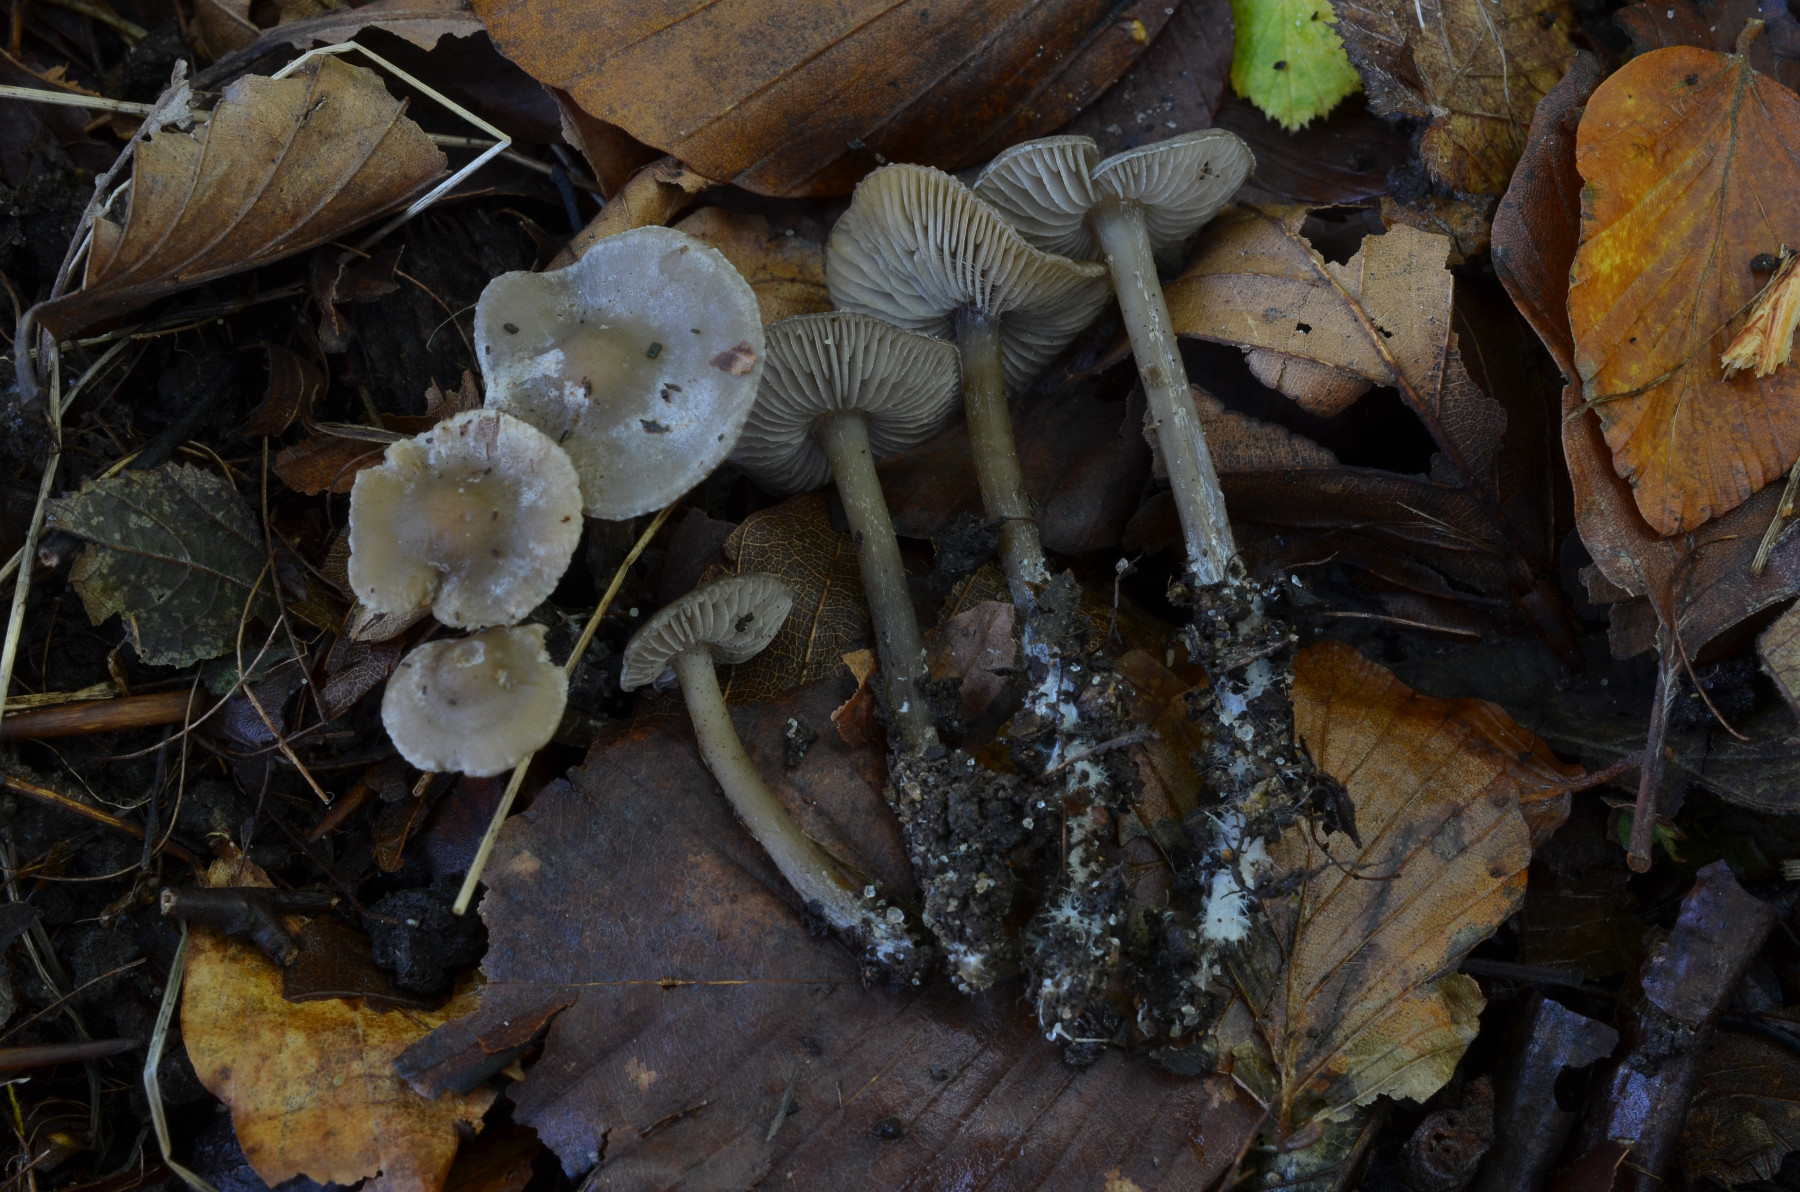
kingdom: Fungi
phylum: Basidiomycota
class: Agaricomycetes
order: Agaricales
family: Lyophyllaceae
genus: Tephrocybe
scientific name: Tephrocybe rancida
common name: mel-gråblad
